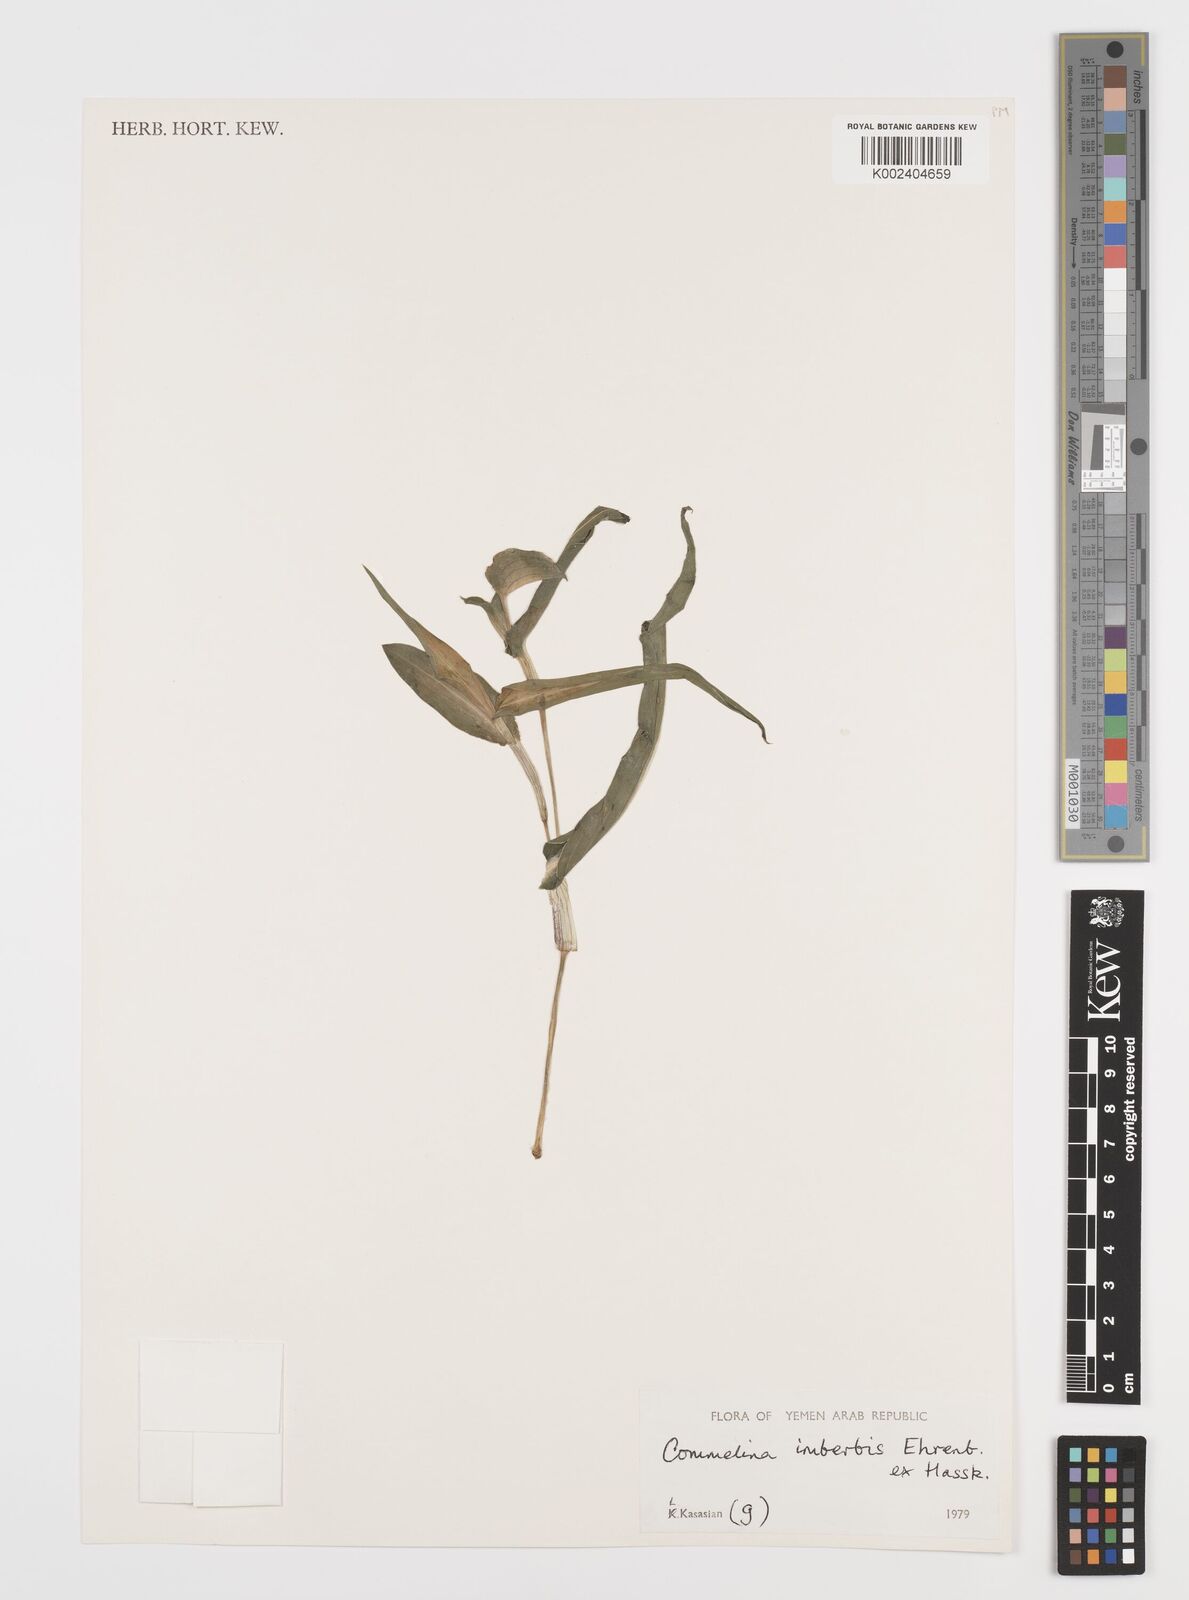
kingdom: Plantae
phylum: Tracheophyta
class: Liliopsida
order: Commelinales
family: Commelinaceae
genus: Commelina
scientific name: Commelina imberbis
